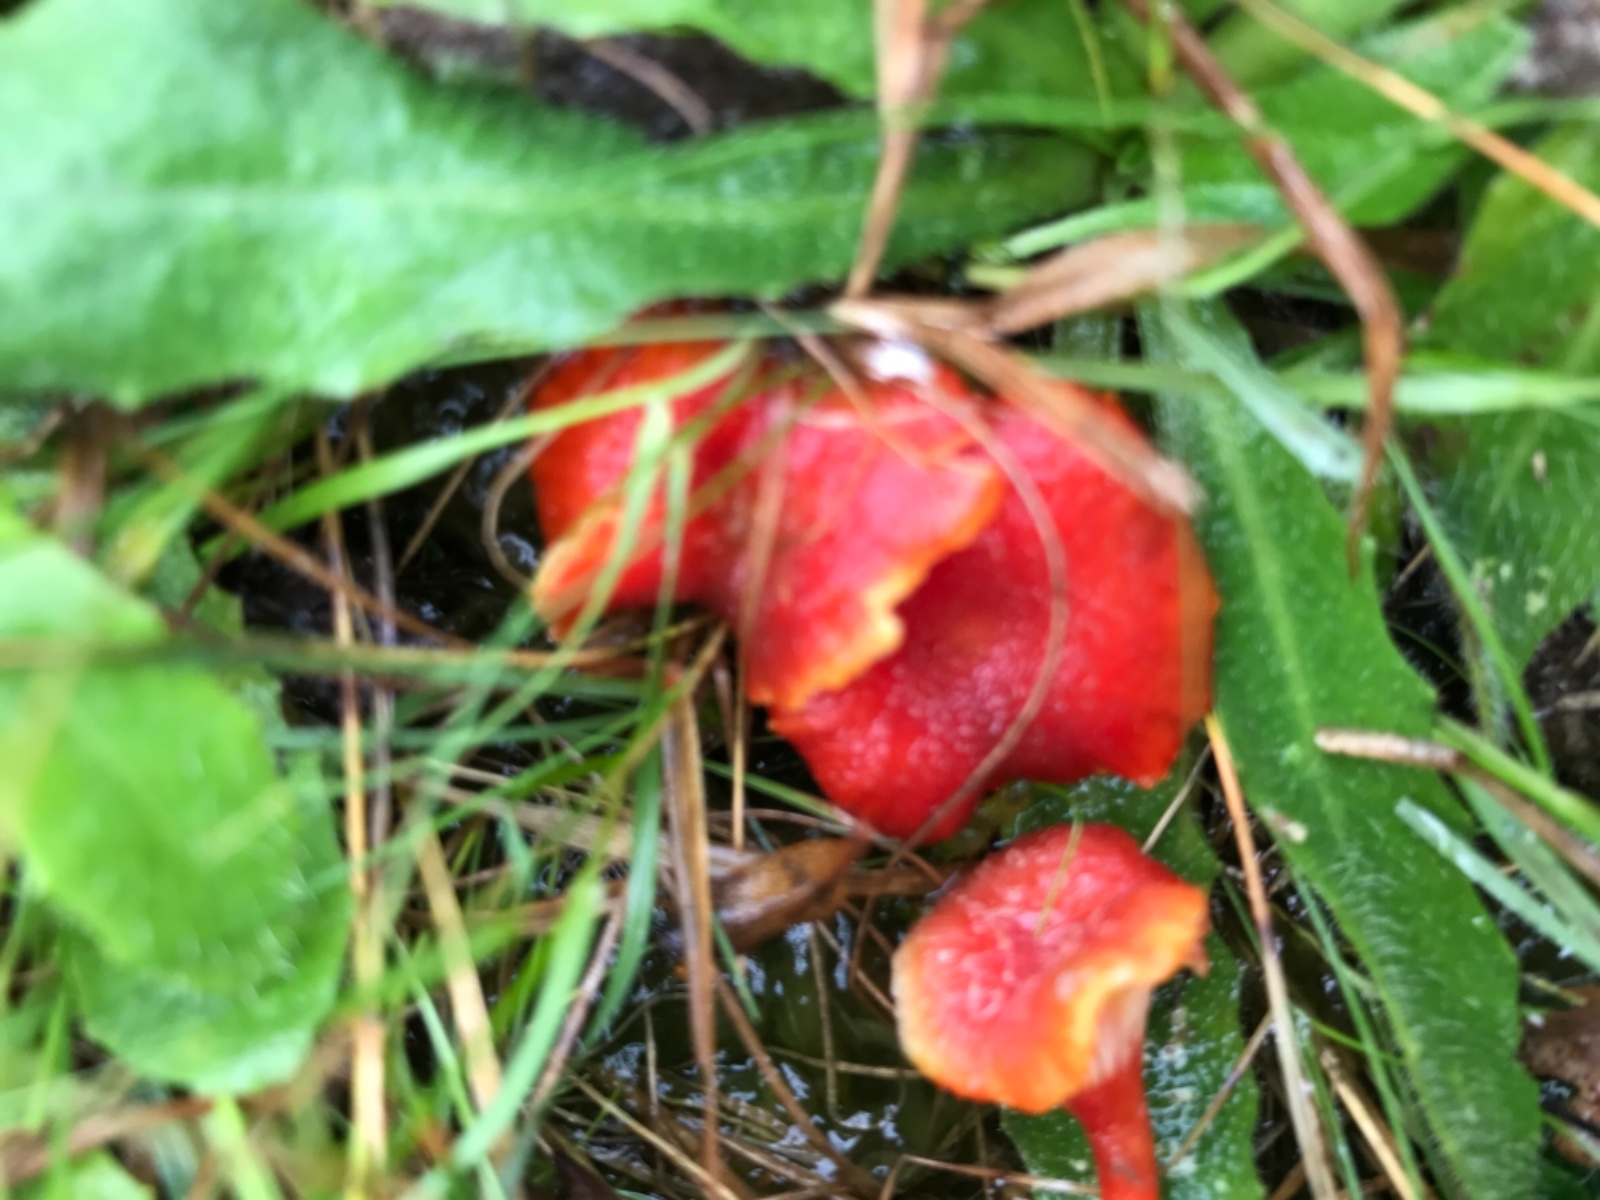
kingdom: Fungi
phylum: Basidiomycota
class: Agaricomycetes
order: Agaricales
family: Hygrophoraceae
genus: Hygrocybe
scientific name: Hygrocybe cantharellus
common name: kantarel-vokshat
